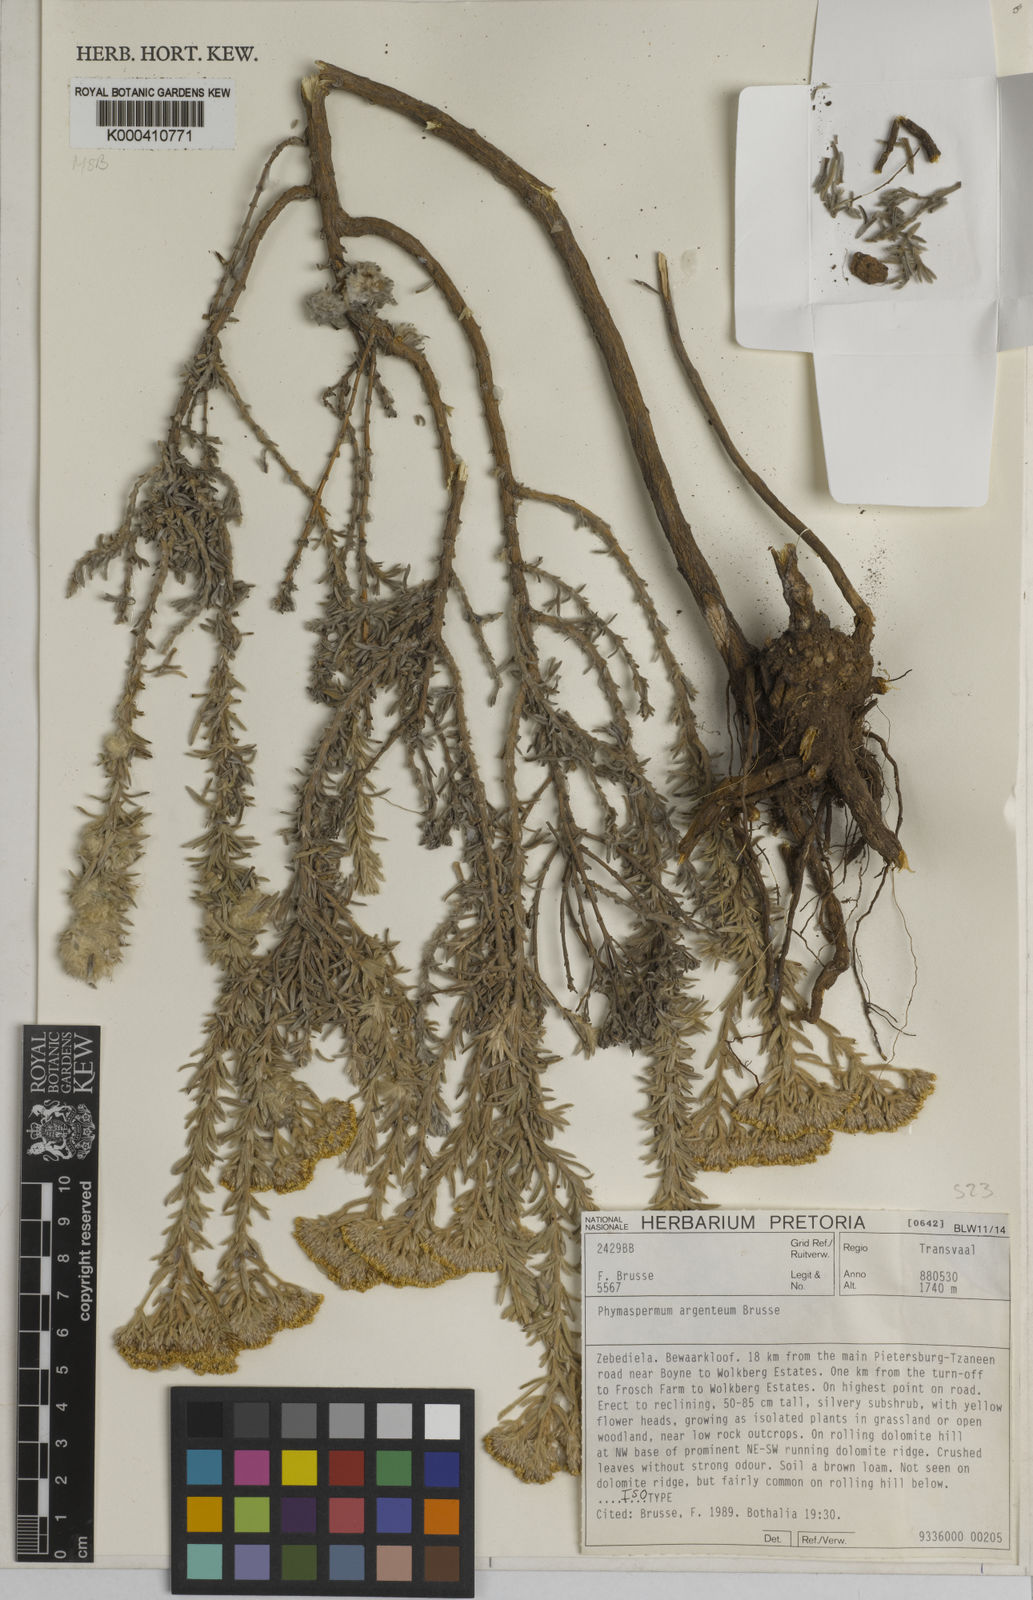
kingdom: Plantae
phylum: Tracheophyta
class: Magnoliopsida
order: Asterales
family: Asteraceae
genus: Phymaspermum
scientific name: Phymaspermum argenteum
